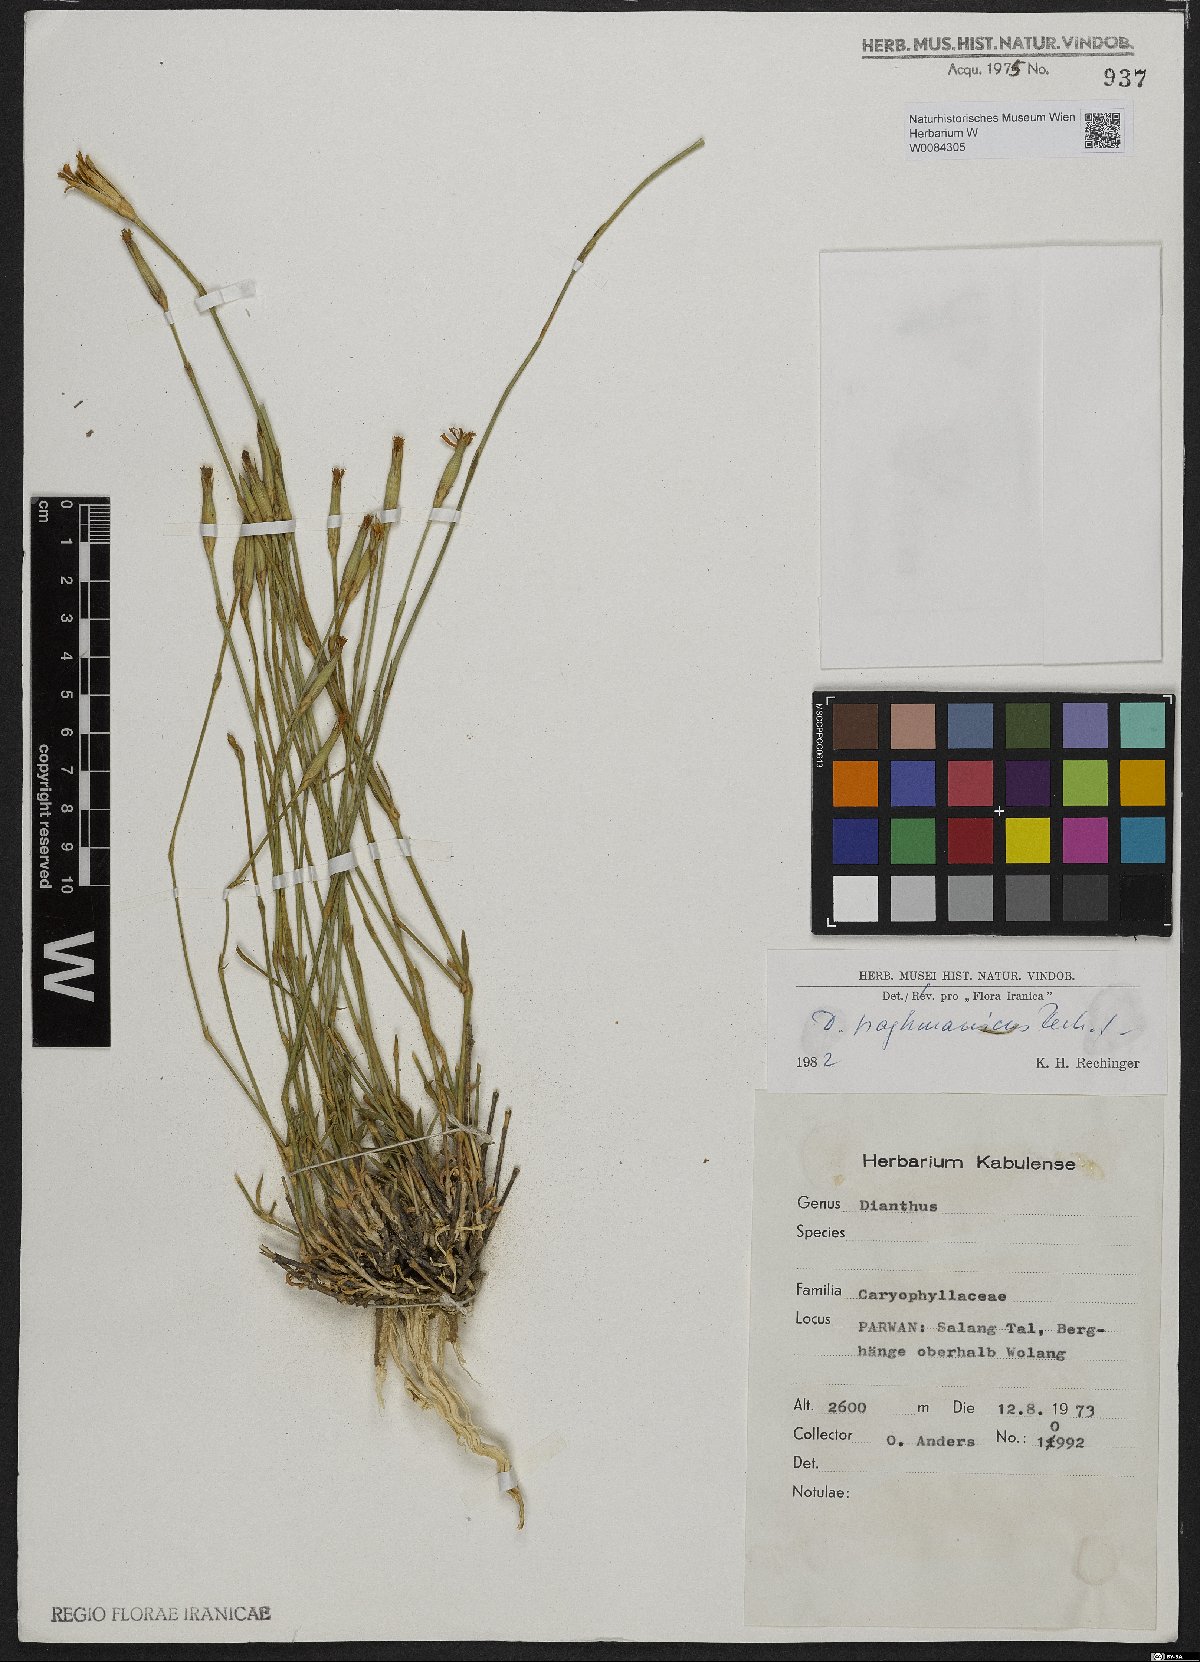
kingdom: Plantae
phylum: Tracheophyta
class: Magnoliopsida
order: Caryophyllales
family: Caryophyllaceae
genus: Dianthus
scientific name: Dianthus paghmanicus
